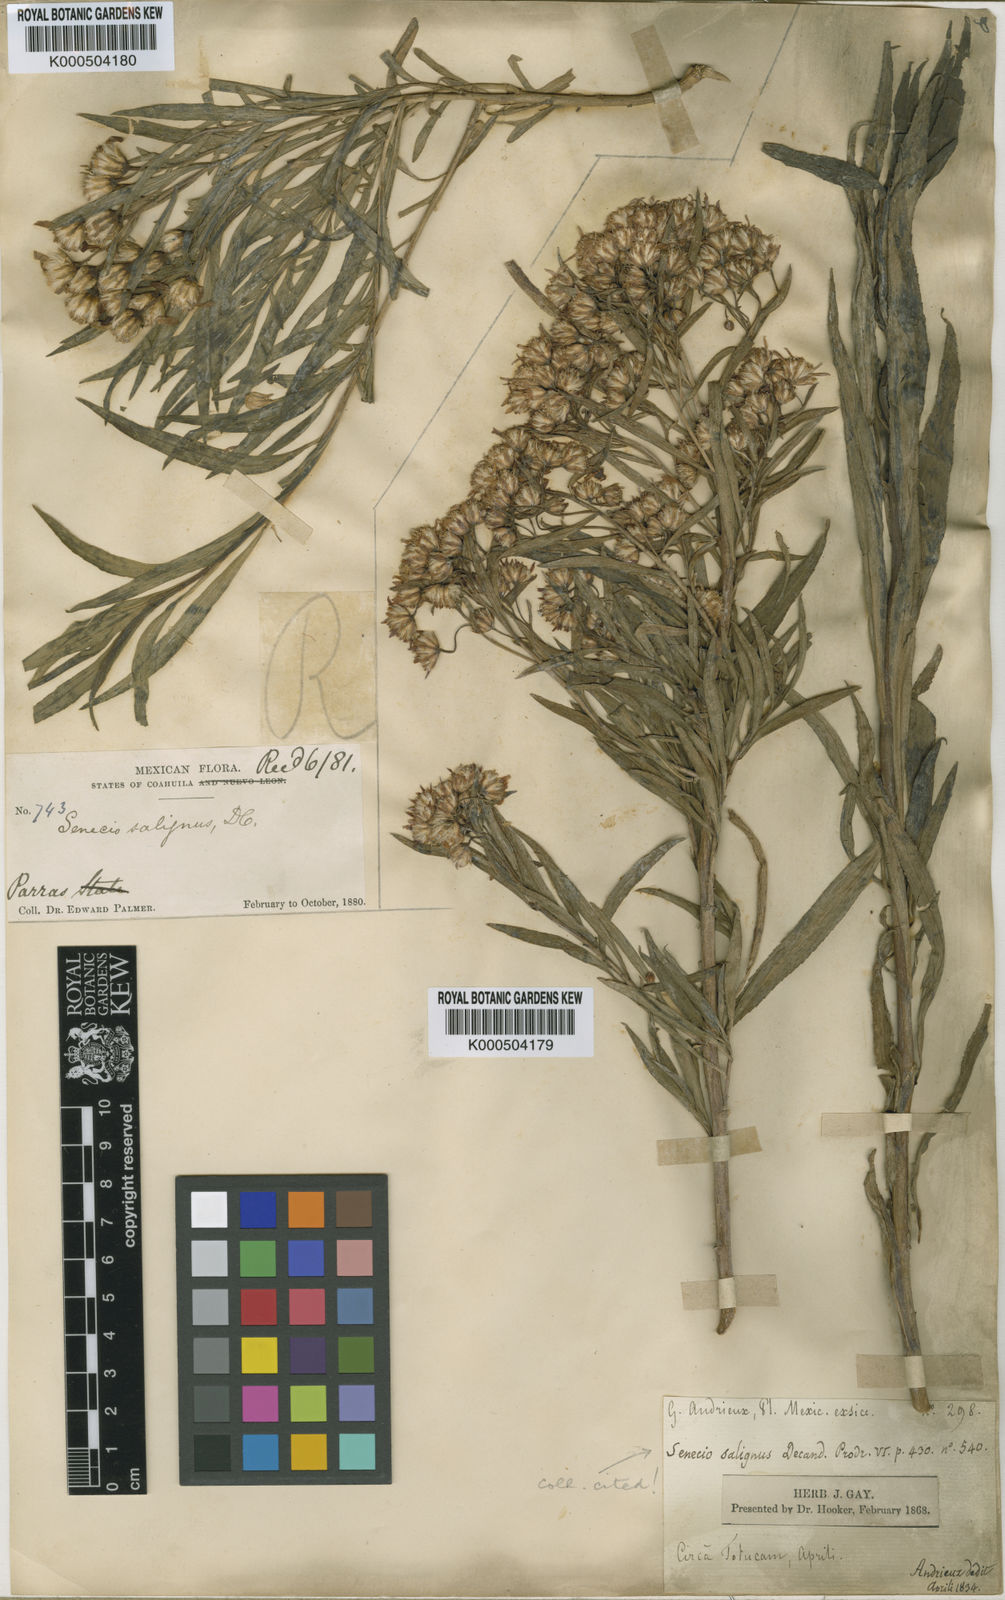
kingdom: Plantae
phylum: Tracheophyta
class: Magnoliopsida
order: Asterales
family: Asteraceae
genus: Barkleyanthus
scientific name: Barkleyanthus salicifolius
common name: Willow ragwort
